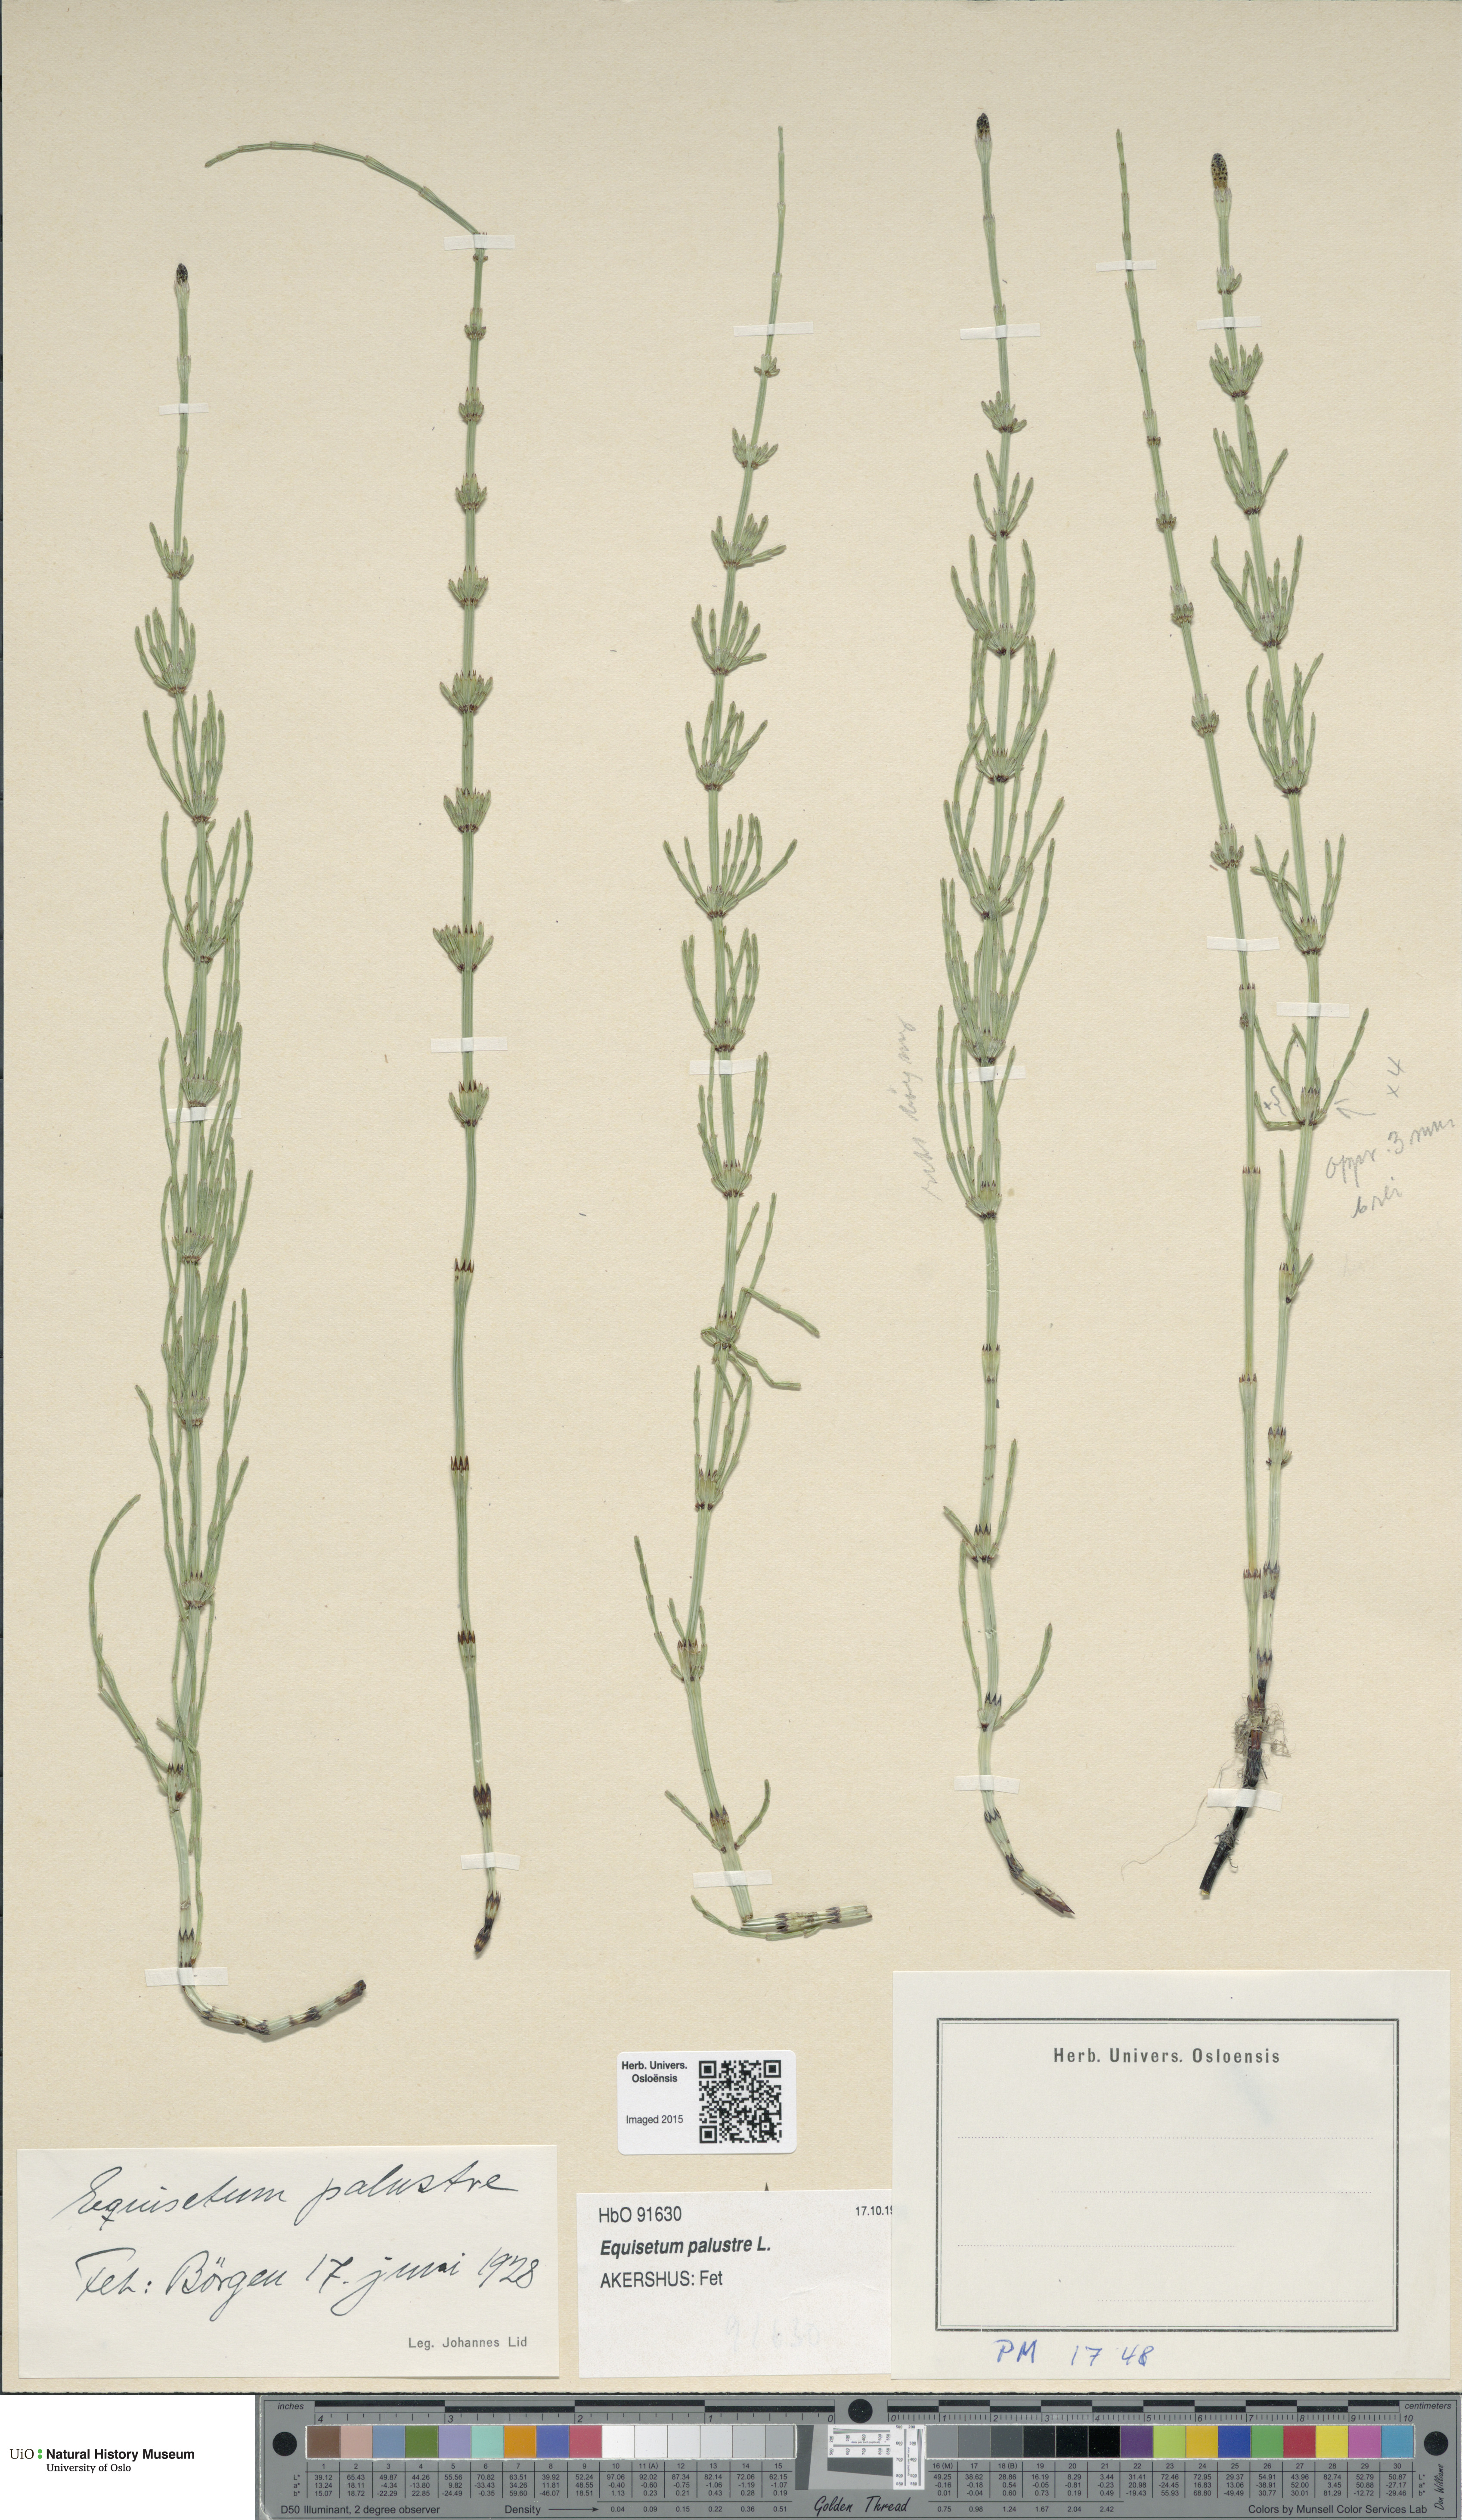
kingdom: Plantae
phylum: Tracheophyta
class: Polypodiopsida
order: Equisetales
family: Equisetaceae
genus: Equisetum
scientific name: Equisetum palustre
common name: Marsh horsetail
